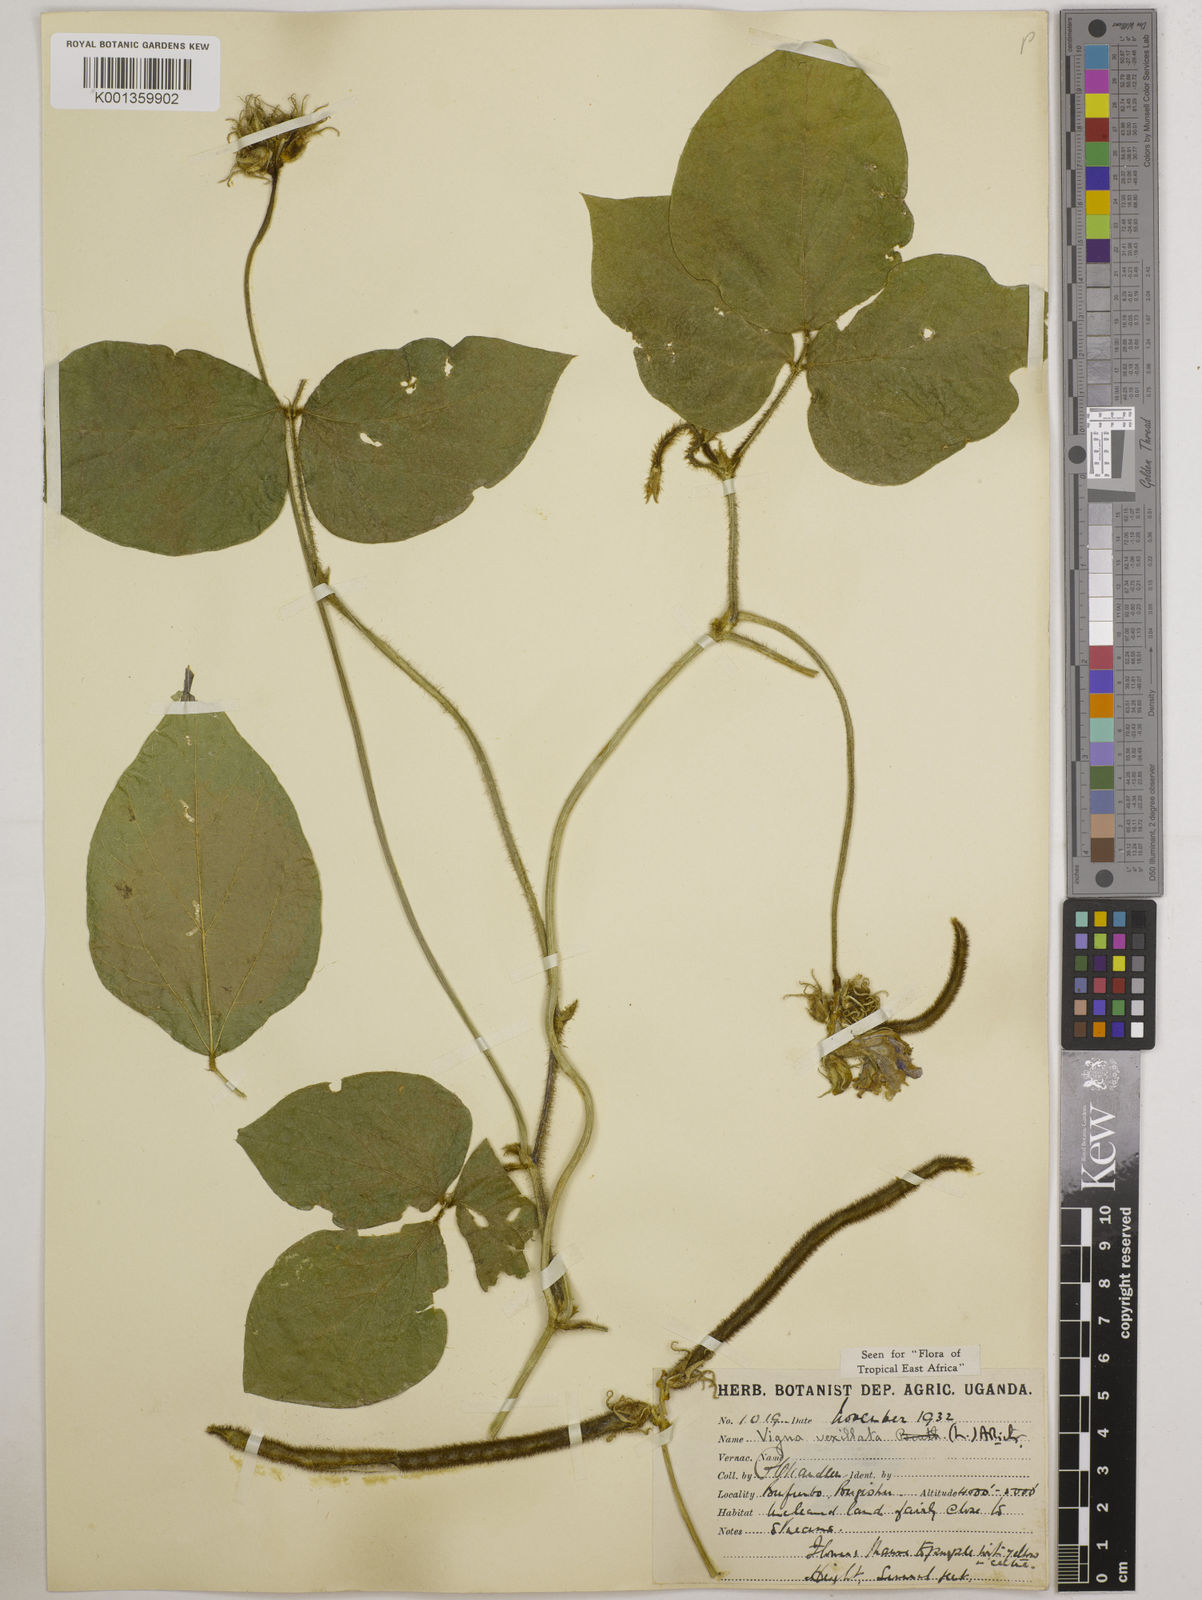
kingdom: Plantae
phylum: Tracheophyta
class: Magnoliopsida
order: Fabales
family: Fabaceae
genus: Vigna
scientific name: Vigna vexillata
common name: Zombi pea
